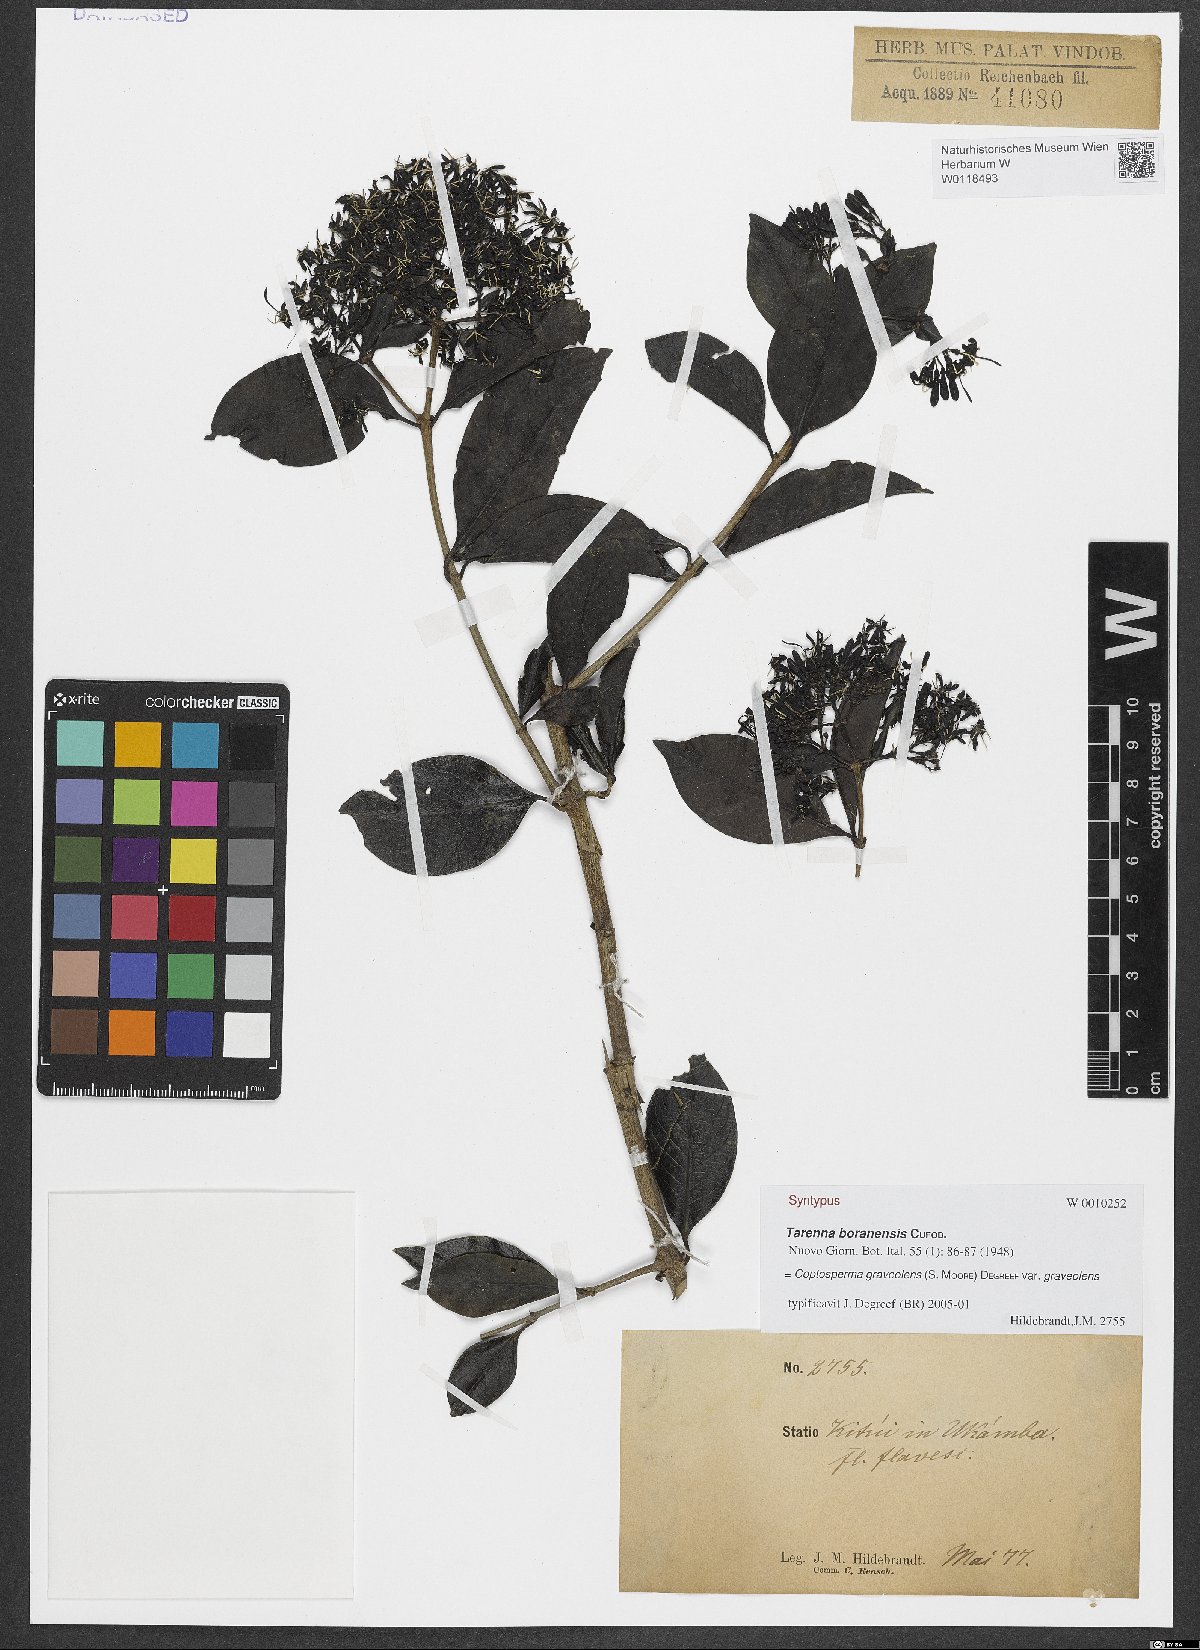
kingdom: Plantae
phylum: Tracheophyta
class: Magnoliopsida
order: Gentianales
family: Rubiaceae
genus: Coptosperma
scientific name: Coptosperma graveolens
